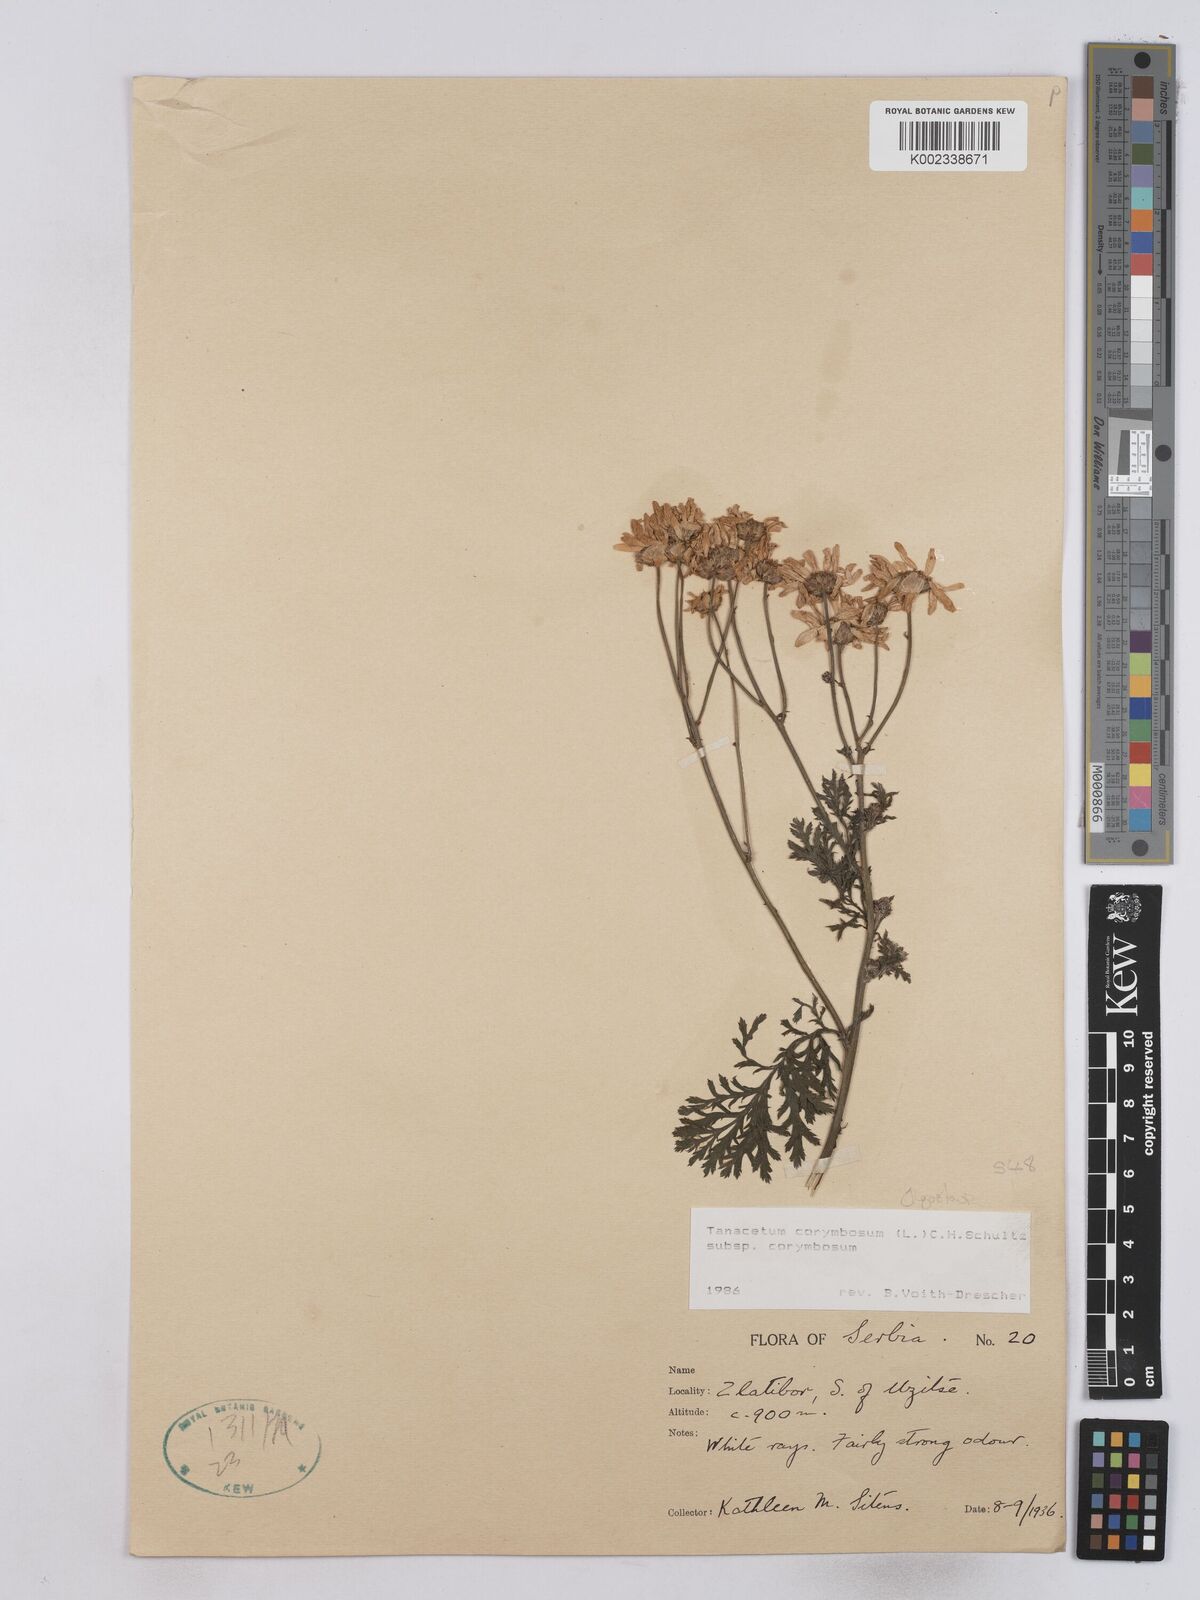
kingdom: Plantae
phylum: Tracheophyta
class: Magnoliopsida
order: Asterales
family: Asteraceae
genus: Tanacetum
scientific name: Tanacetum corymbosum
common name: Scentless feverfew
